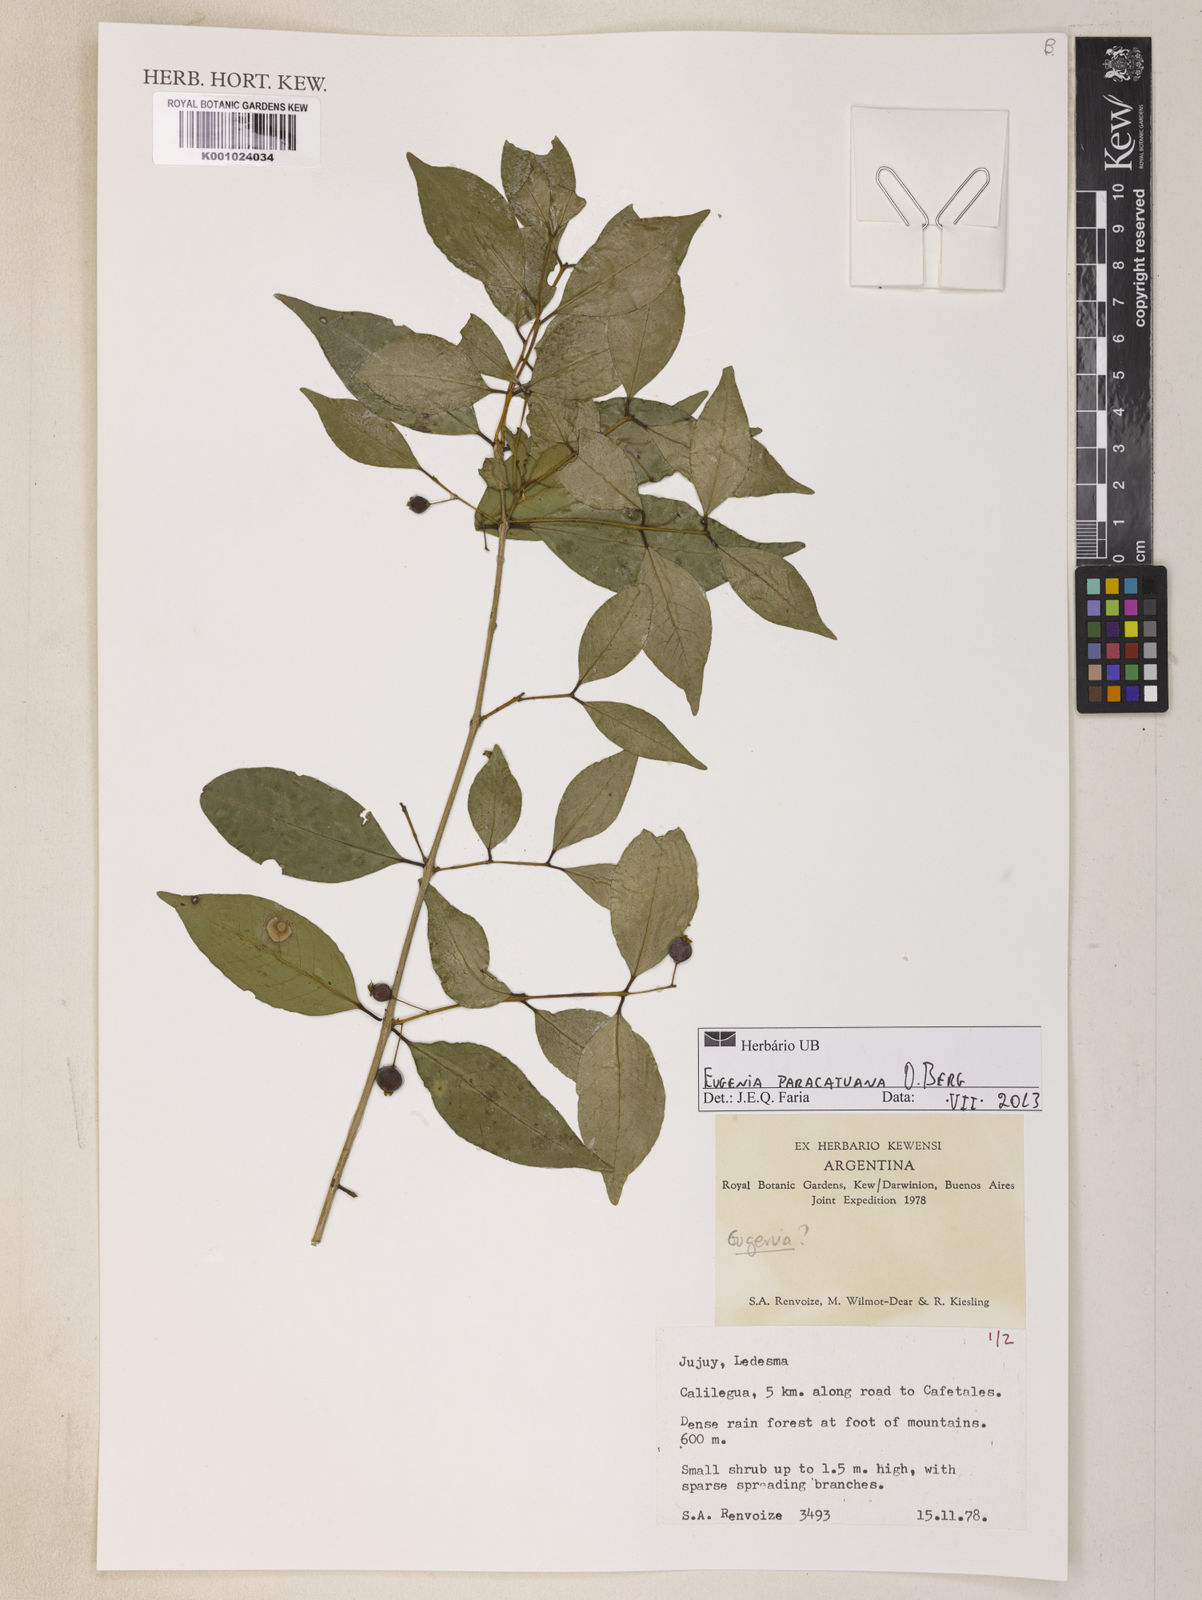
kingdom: Plantae
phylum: Tracheophyta
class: Magnoliopsida
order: Myrtales
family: Myrtaceae
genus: Eugenia
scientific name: Eugenia moraviana
